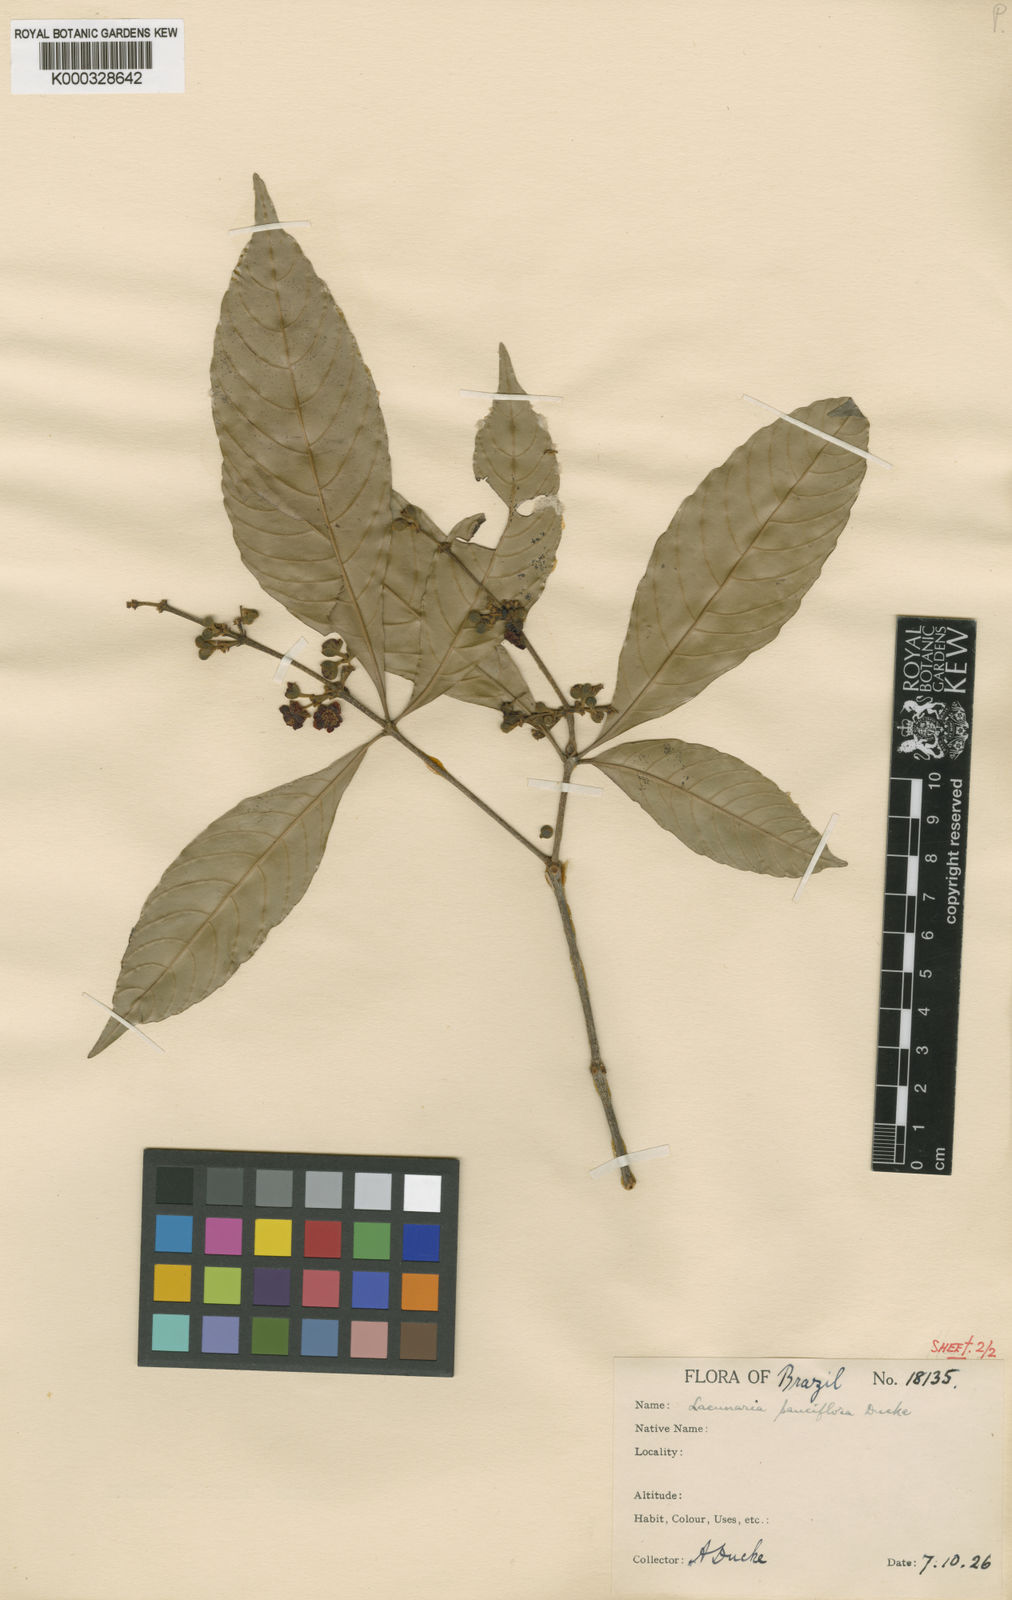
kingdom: Plantae
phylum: Tracheophyta
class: Magnoliopsida
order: Malpighiales
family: Quiinaceae
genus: Lacunaria
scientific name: Lacunaria crenata
